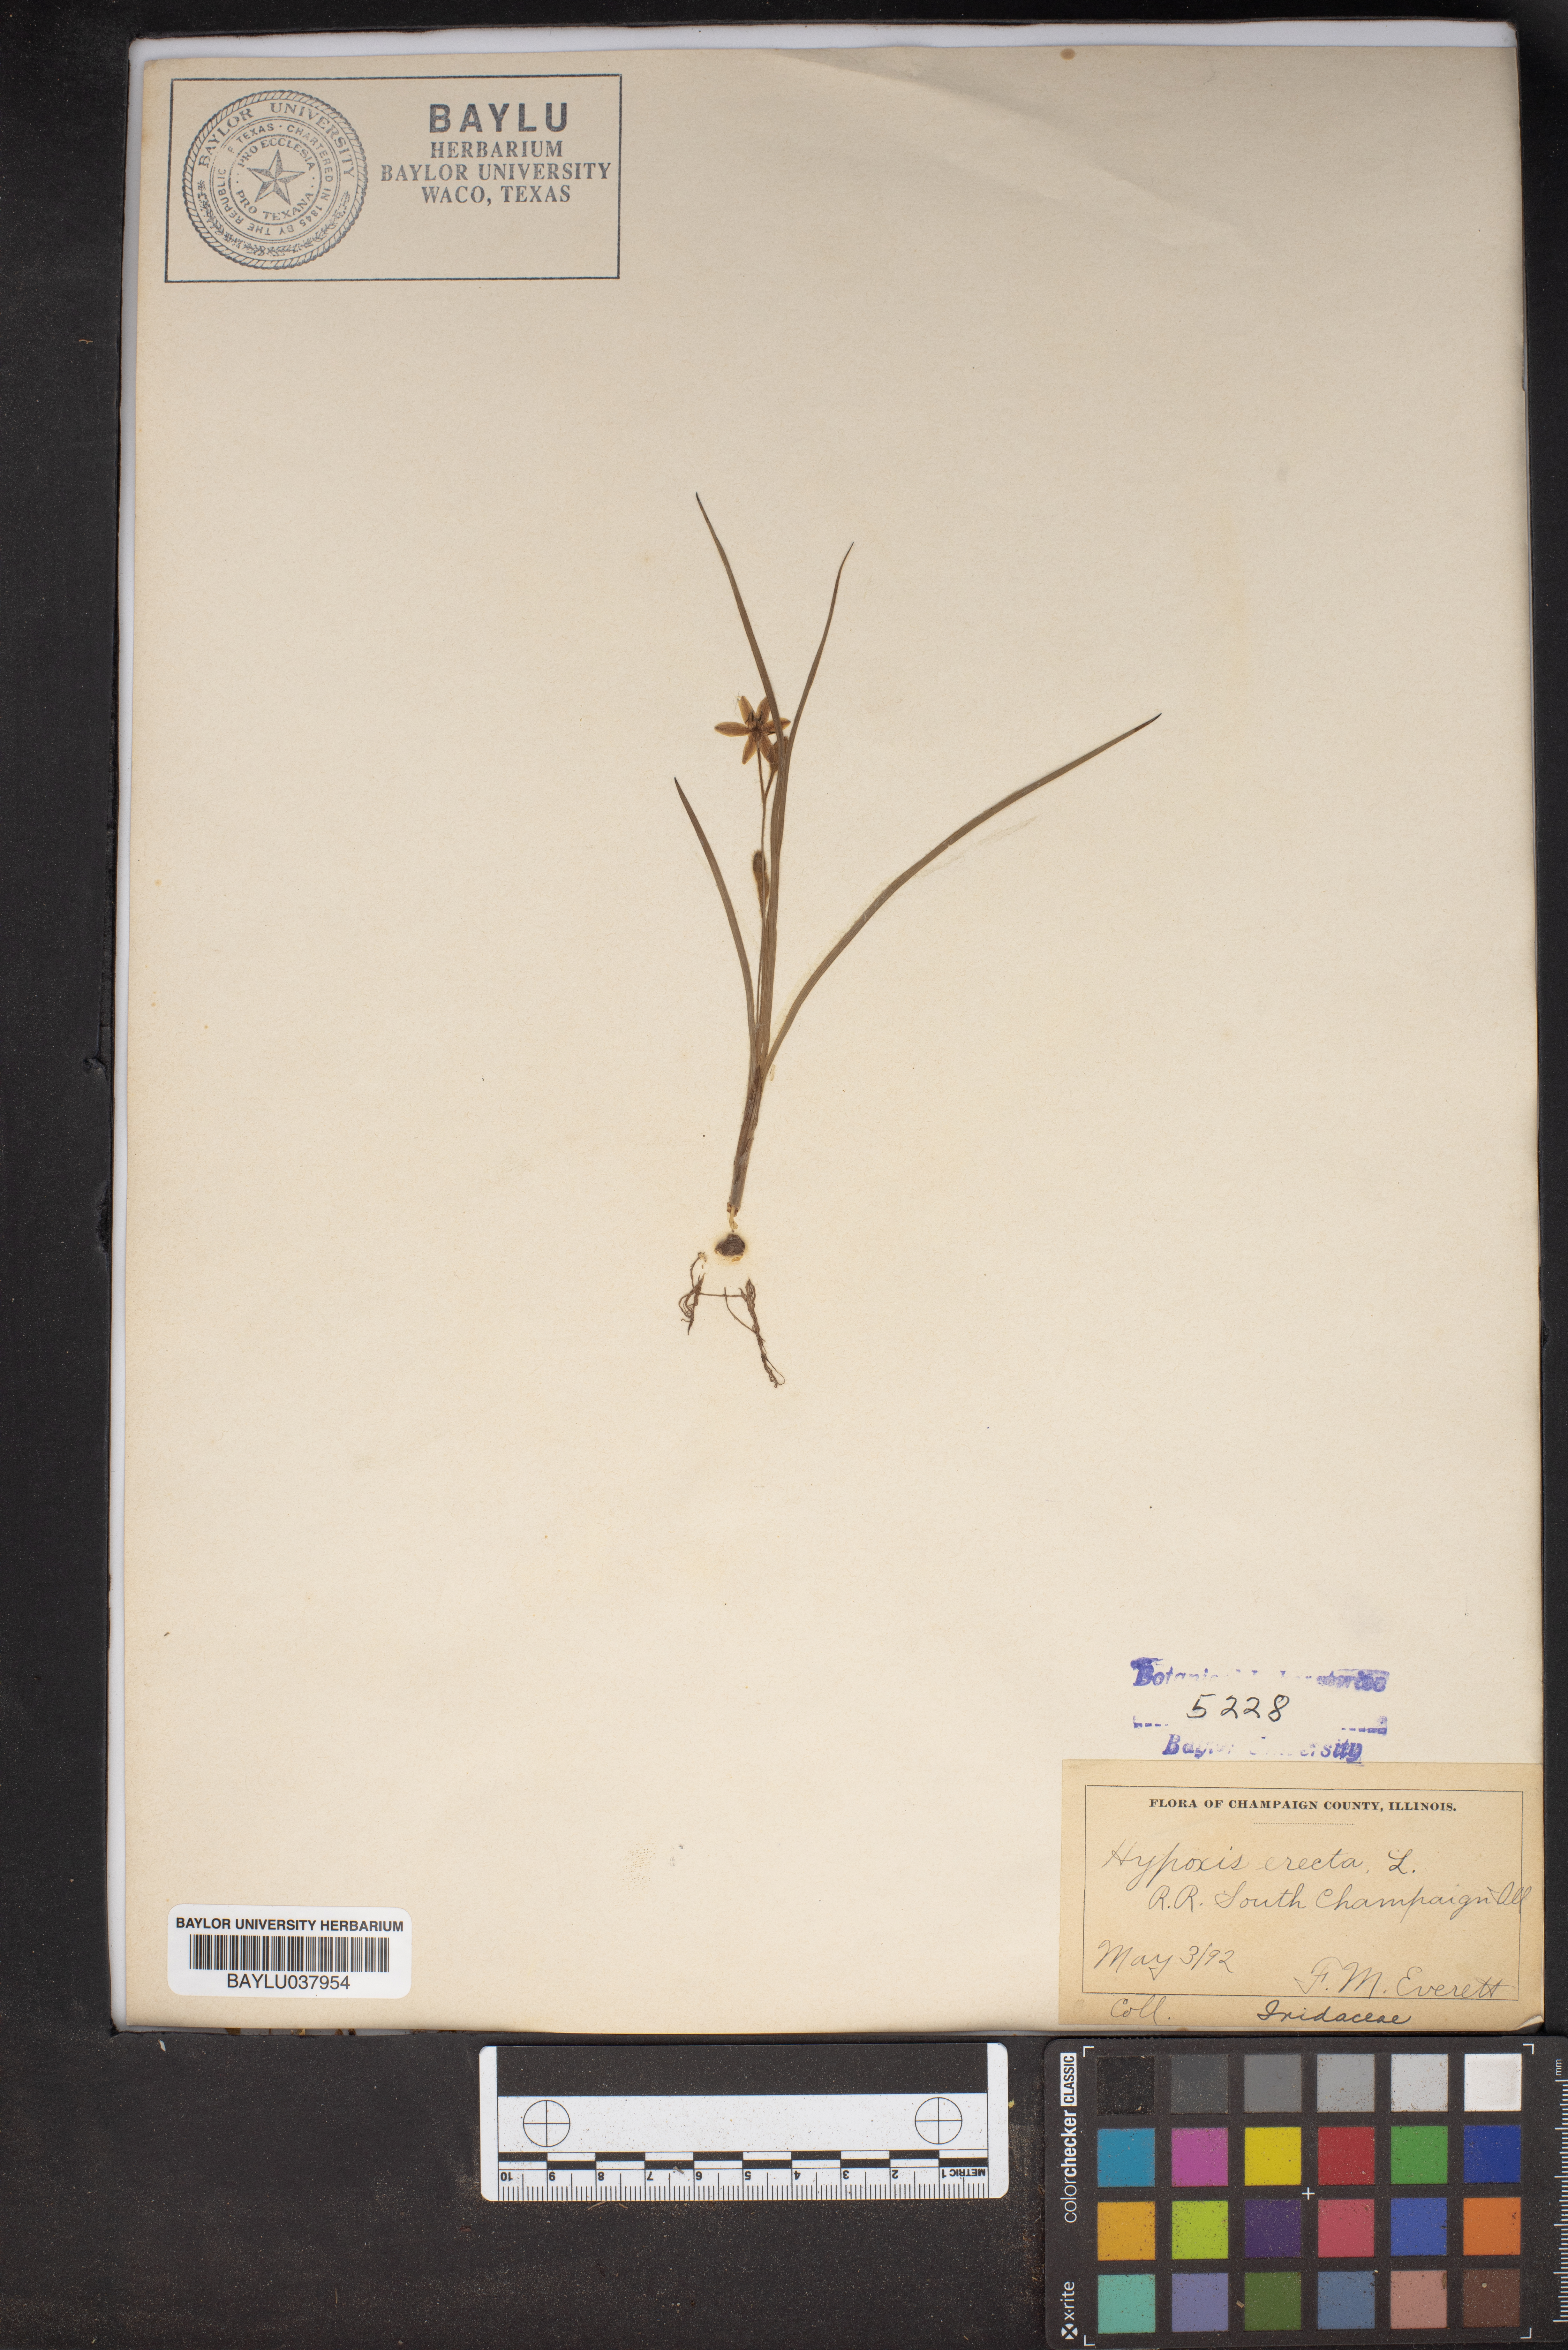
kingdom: Plantae
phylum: Tracheophyta
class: Liliopsida
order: Asparagales
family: Hypoxidaceae
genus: Hypoxis
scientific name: Hypoxis hirsuta
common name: Common goldstar
